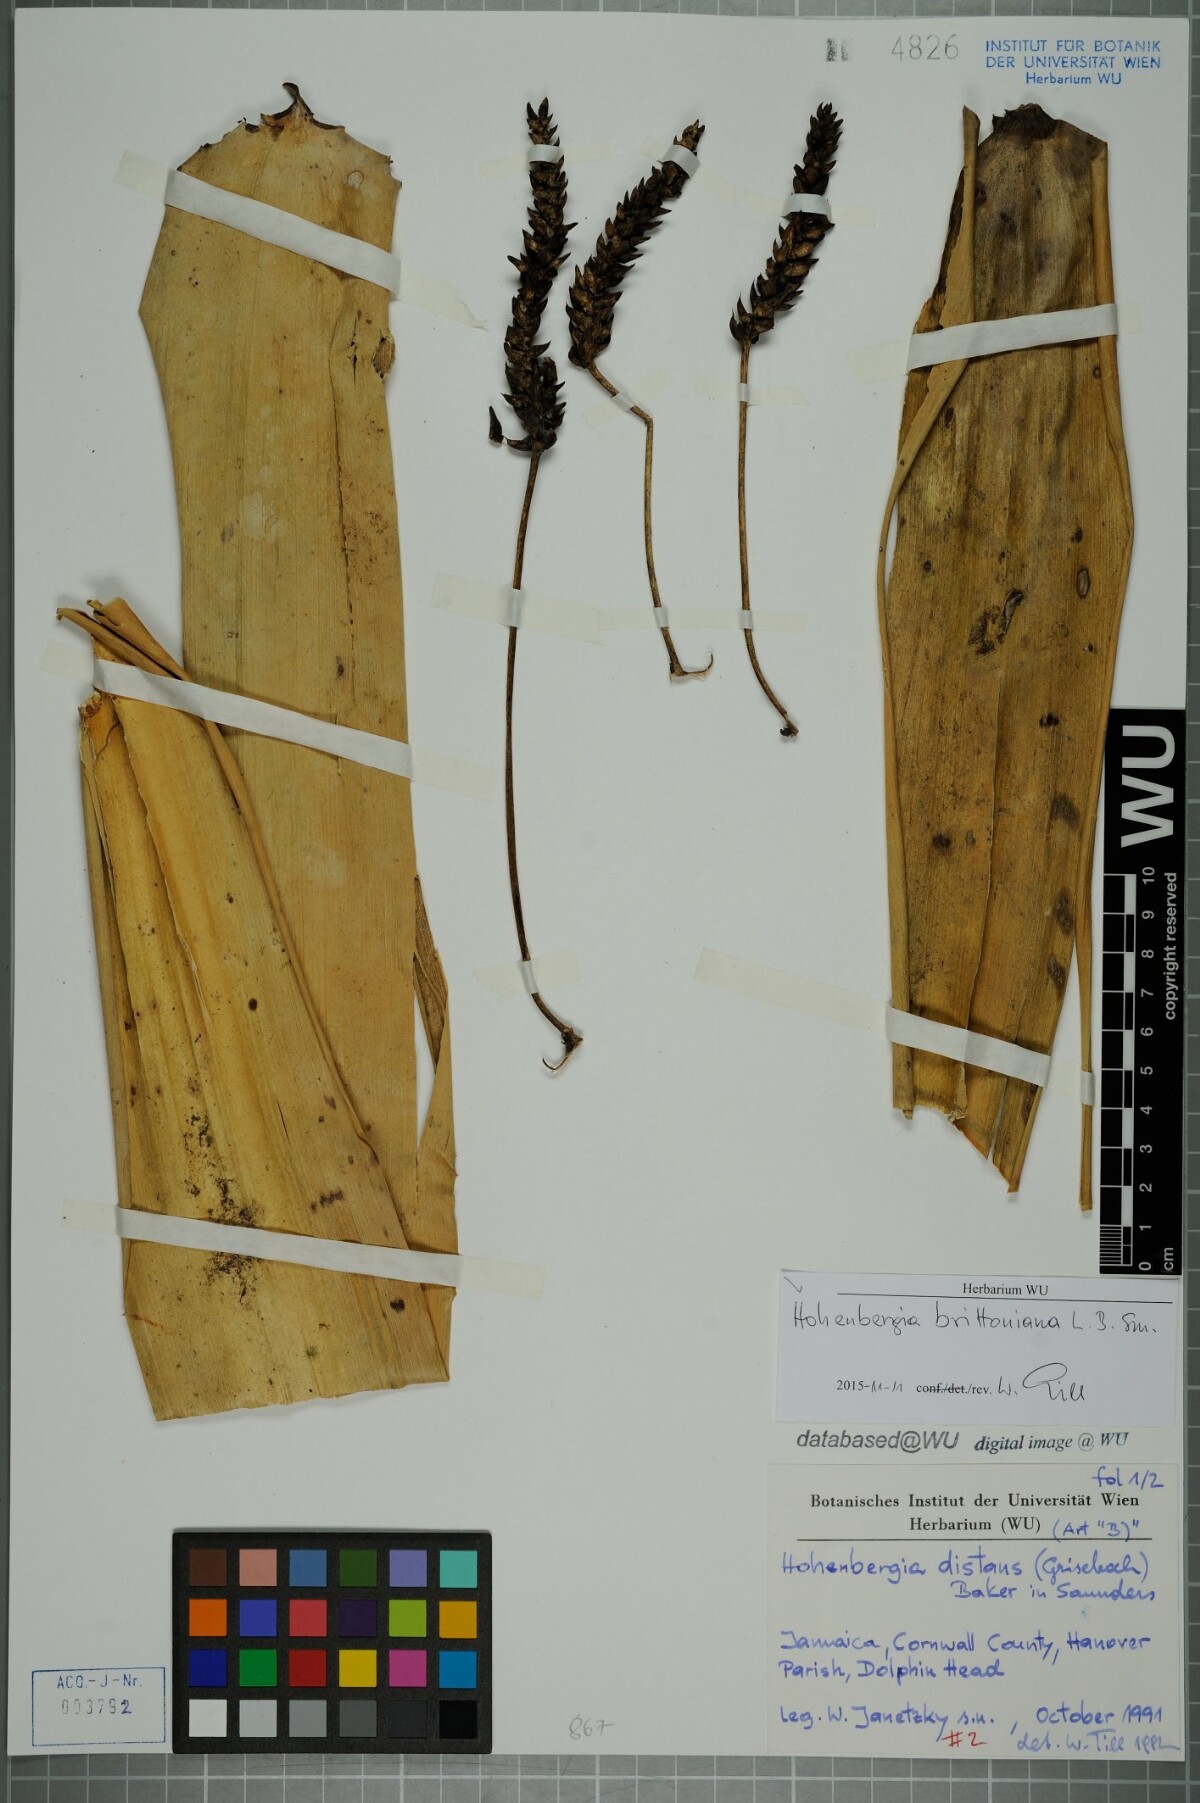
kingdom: Plantae
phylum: Tracheophyta
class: Liliopsida
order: Poales
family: Bromeliaceae
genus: Wittmackia
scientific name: Wittmackia distans
